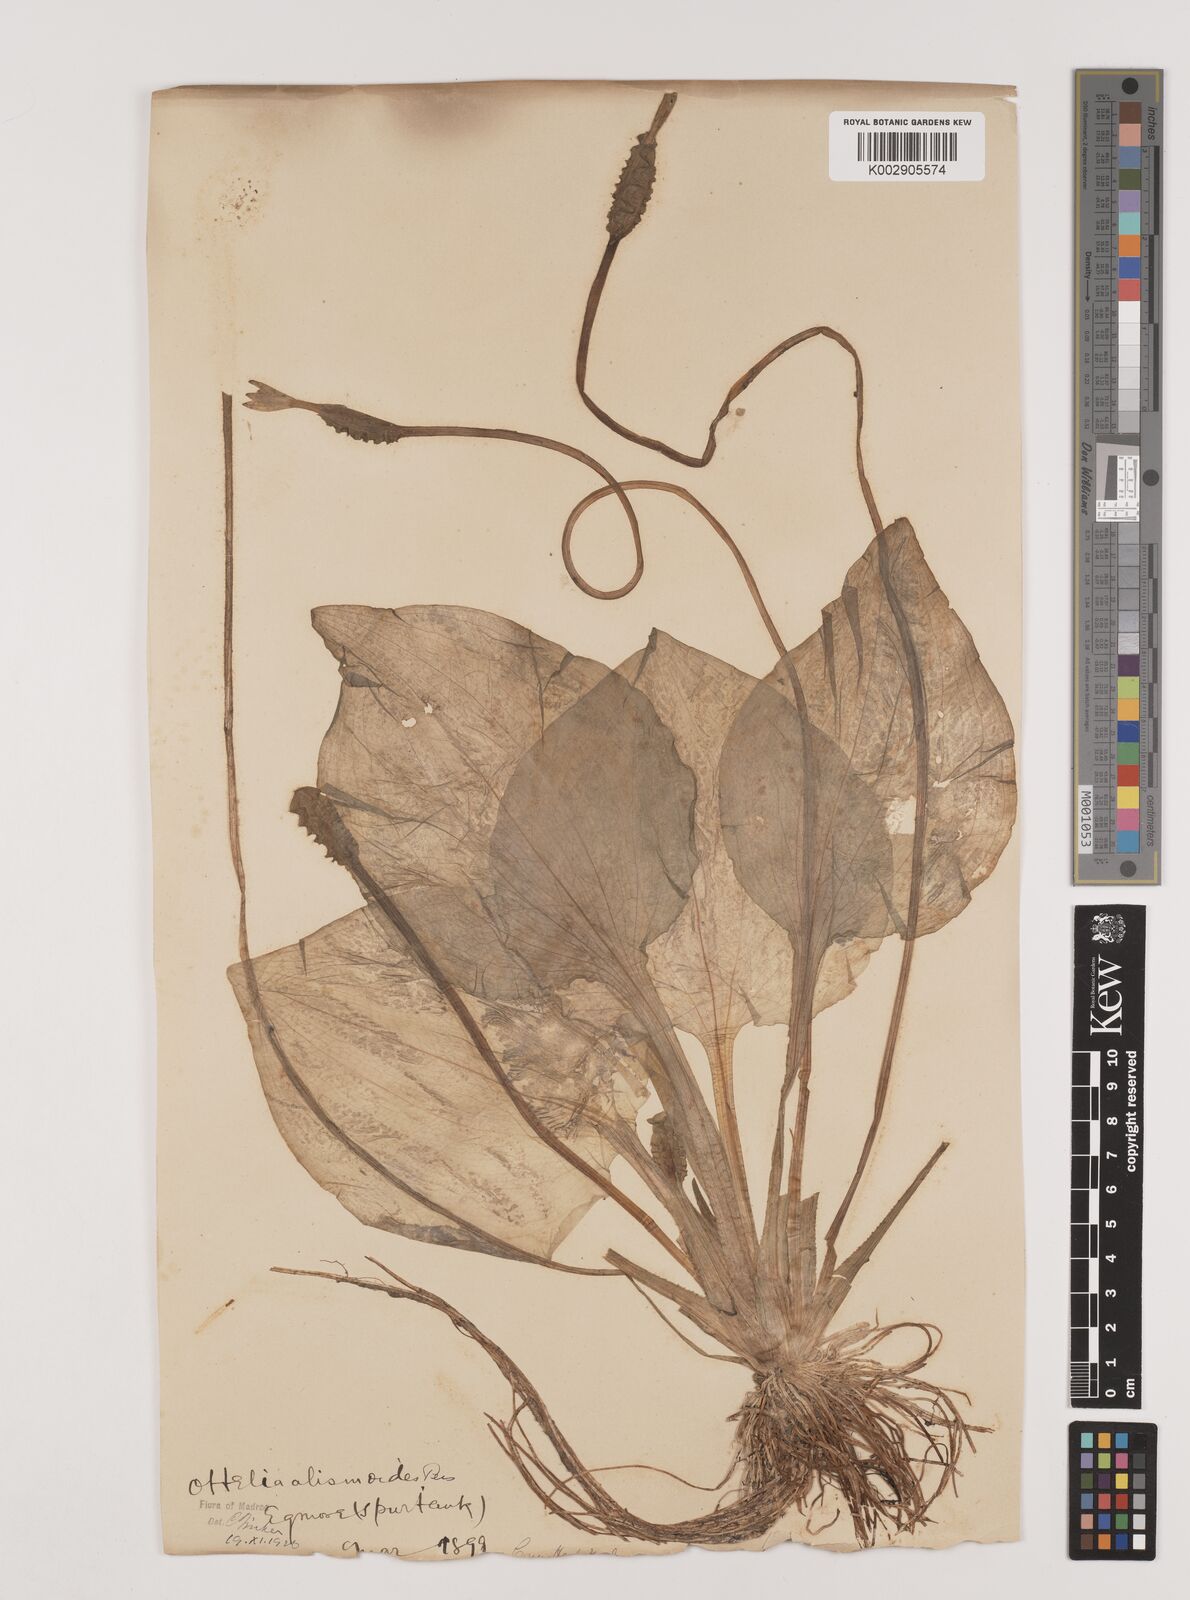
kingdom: Plantae
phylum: Tracheophyta
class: Liliopsida
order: Alismatales
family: Hydrocharitaceae
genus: Ottelia
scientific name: Ottelia alismoides
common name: Duck-lettuce
